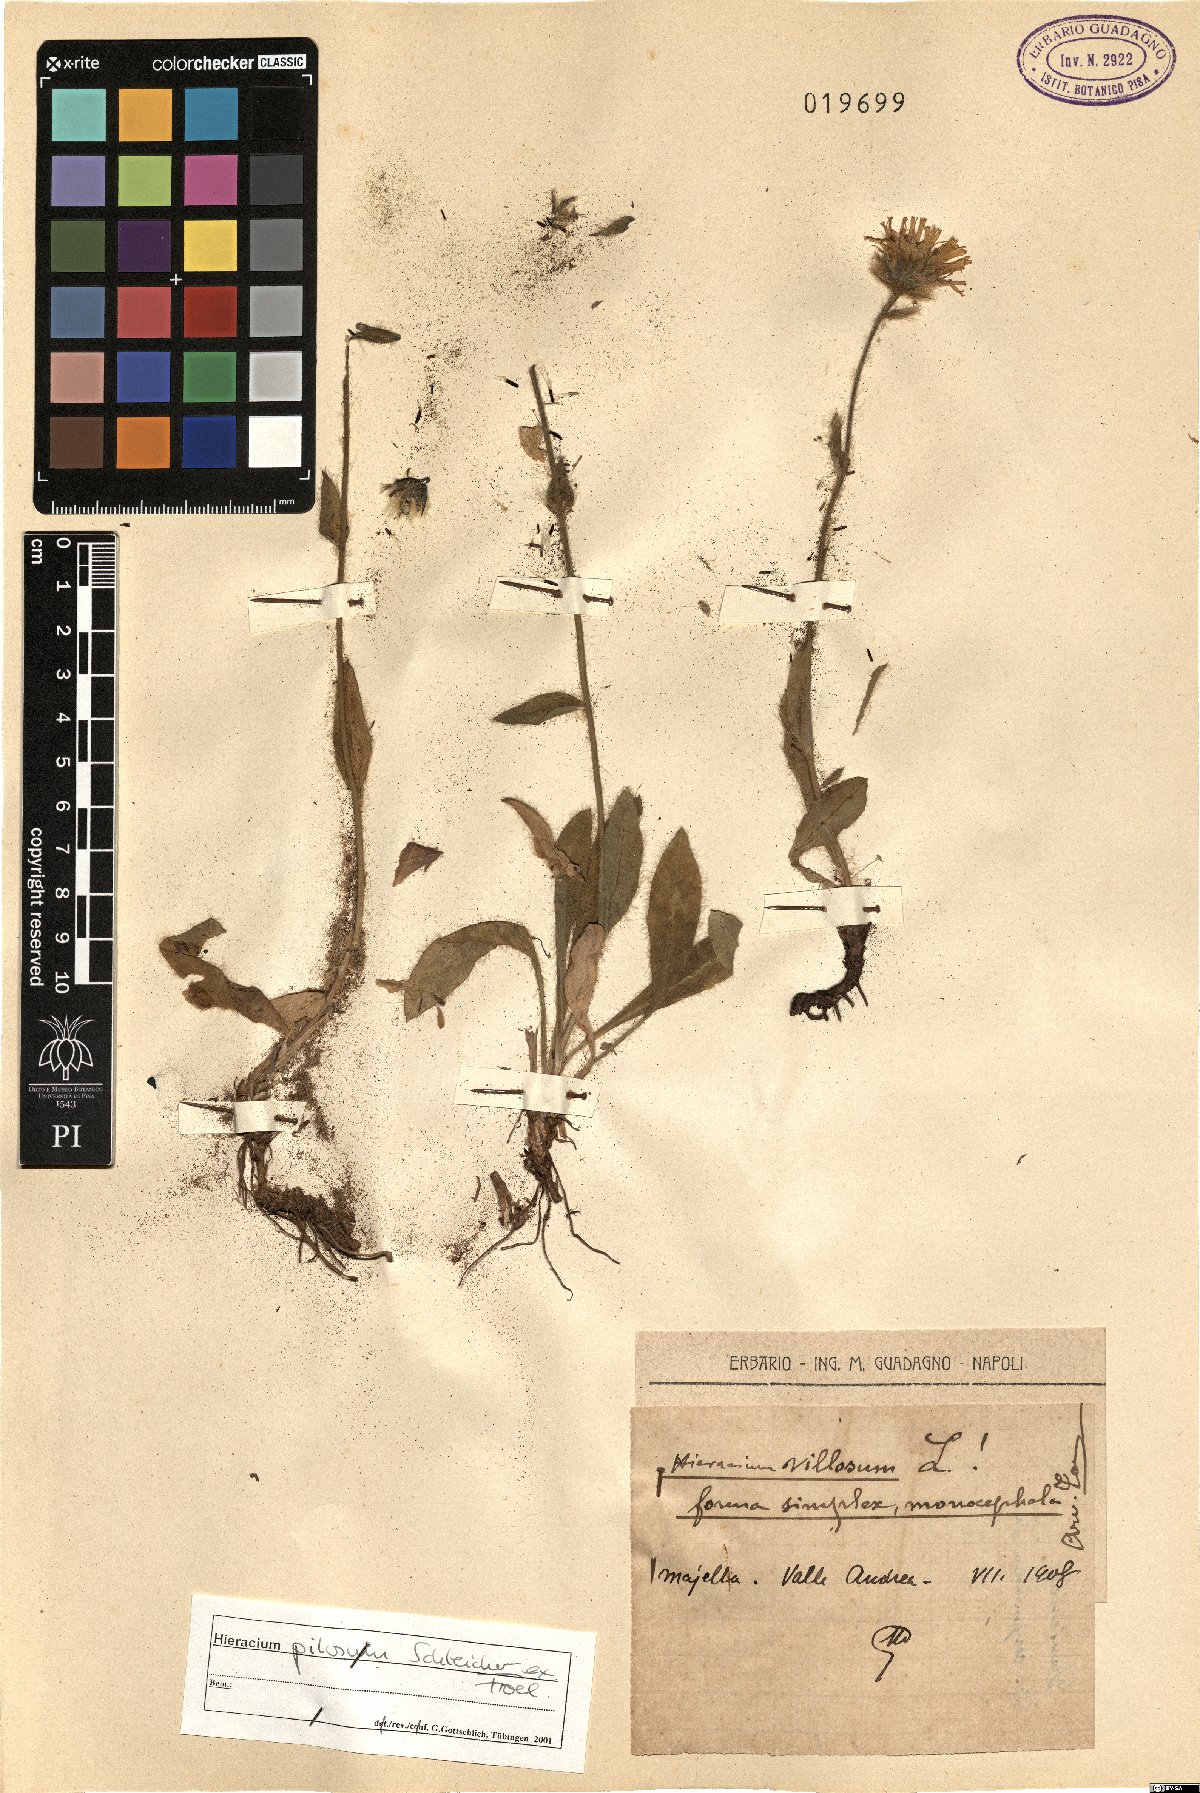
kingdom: Plantae
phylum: Tracheophyta
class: Magnoliopsida
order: Asterales
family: Asteraceae
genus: Hieracium
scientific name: Hieracium pilosum
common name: Fimbriate-pitted hawkweed
